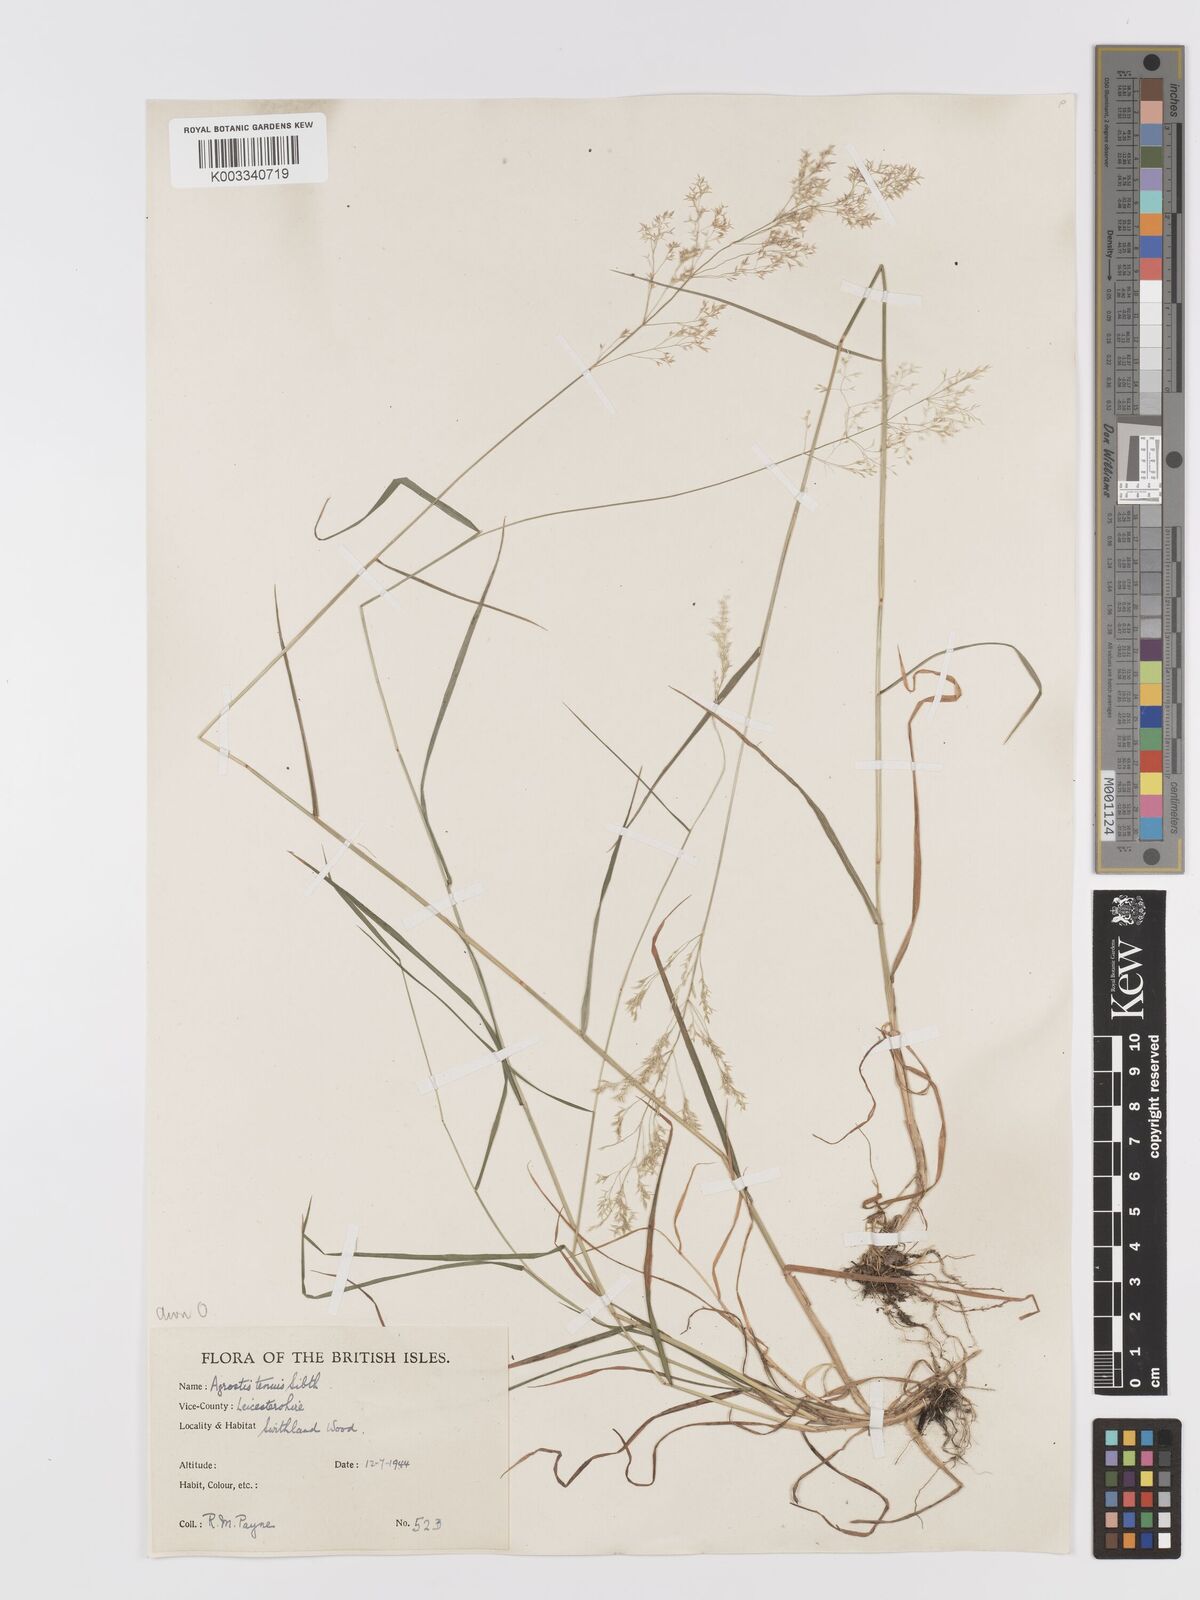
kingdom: Plantae
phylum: Tracheophyta
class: Liliopsida
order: Poales
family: Poaceae
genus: Agrostis
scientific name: Agrostis capillaris
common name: Colonial bentgrass
